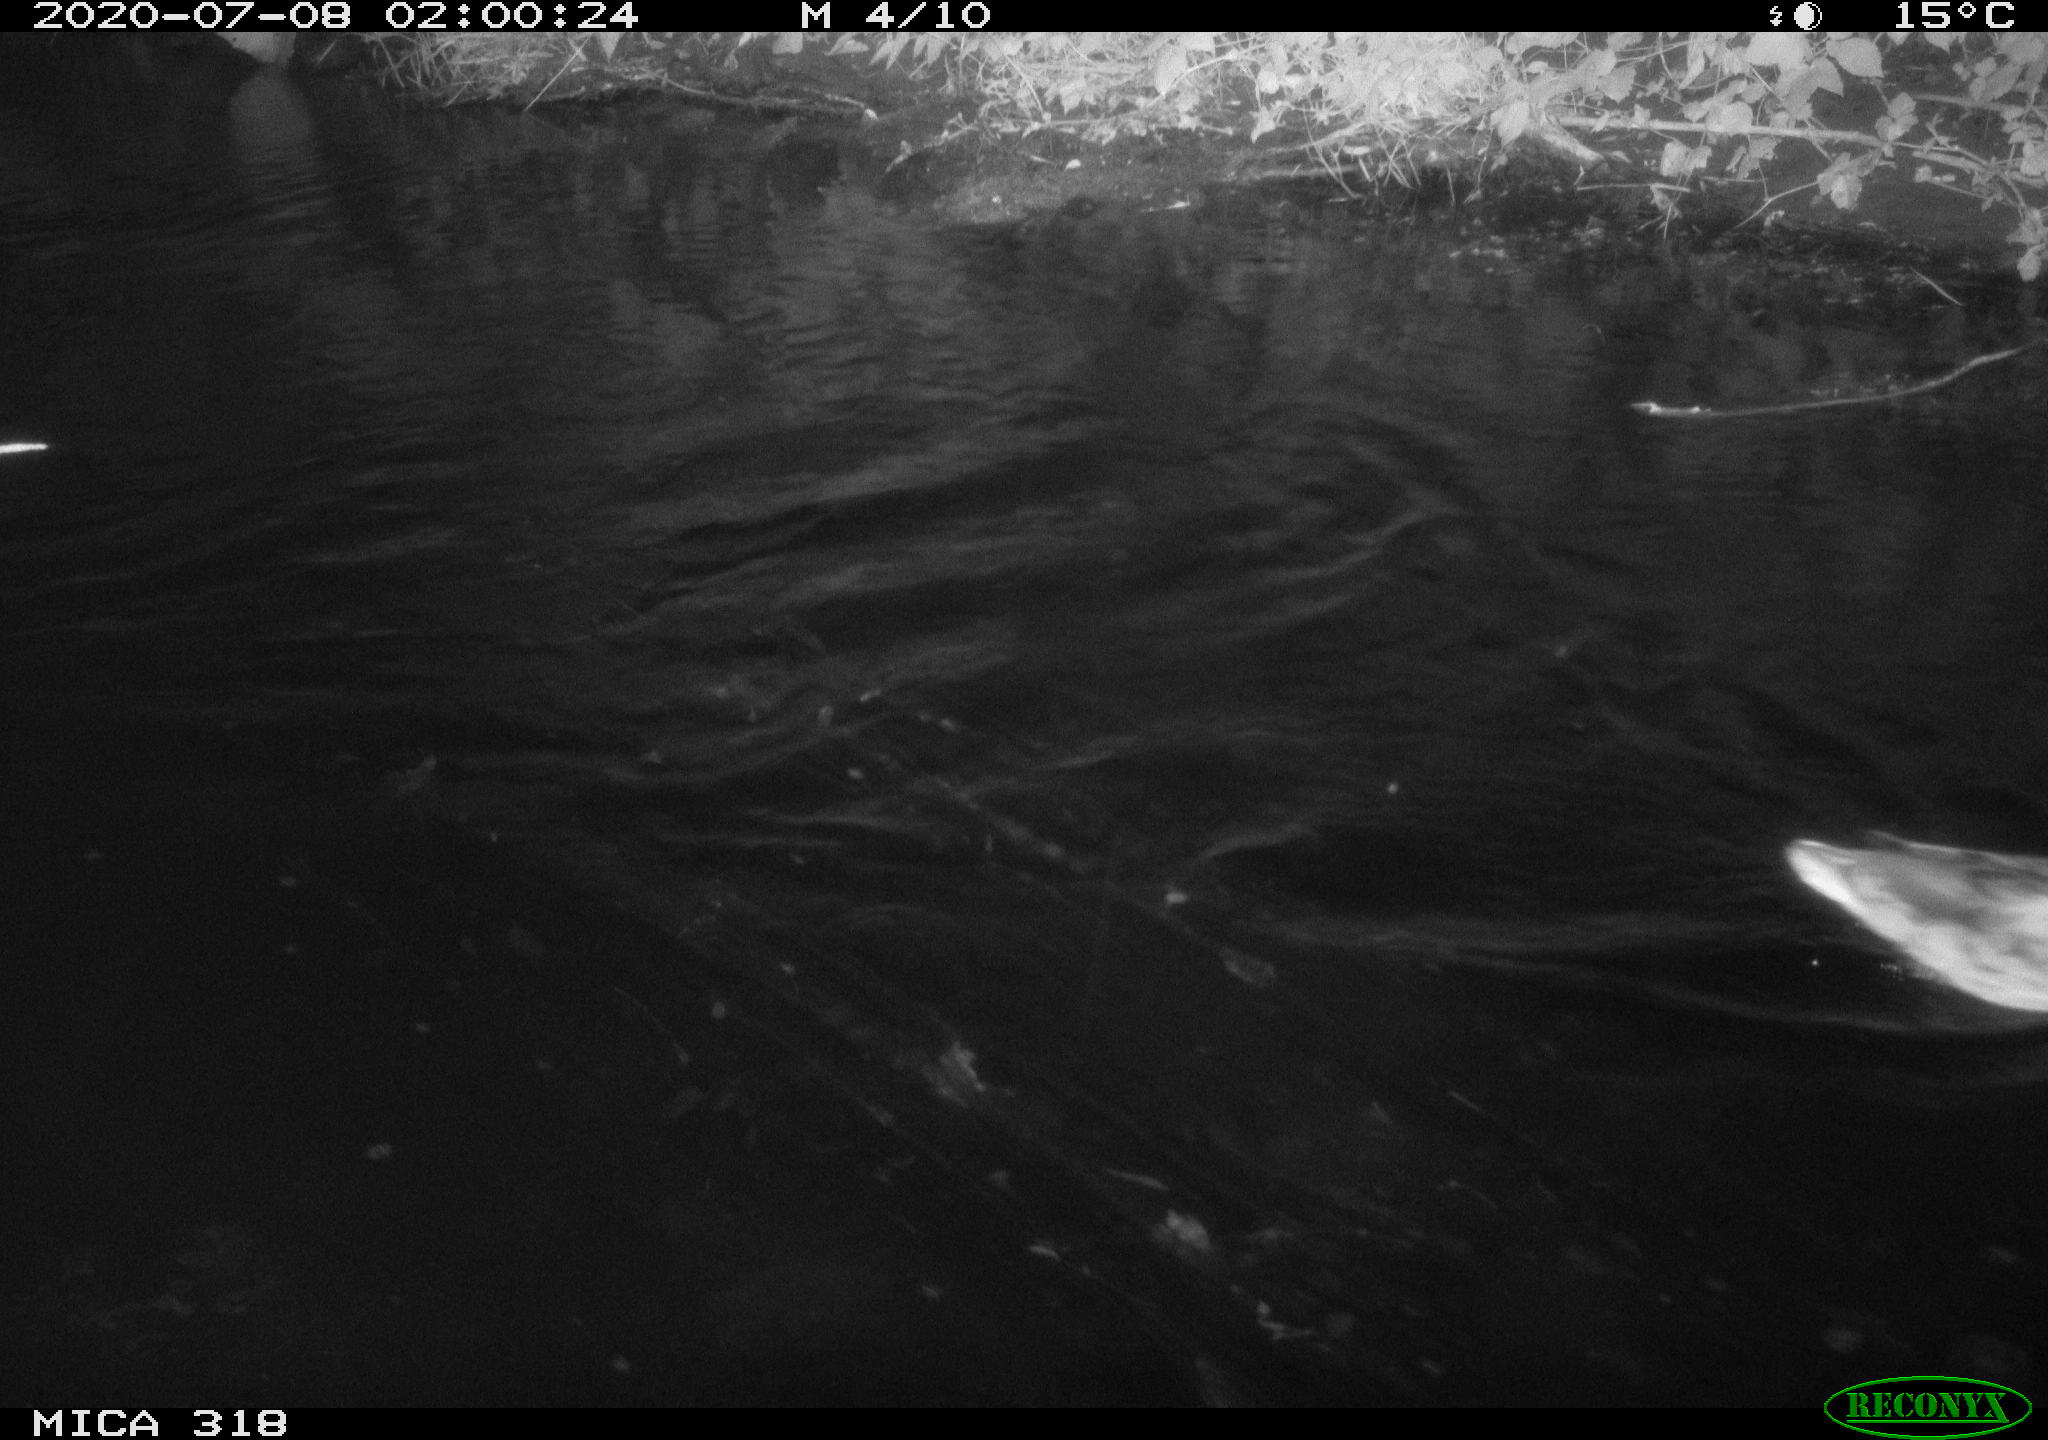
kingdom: Animalia
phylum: Chordata
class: Aves
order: Anseriformes
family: Anatidae
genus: Mareca
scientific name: Mareca strepera
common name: Gadwall
